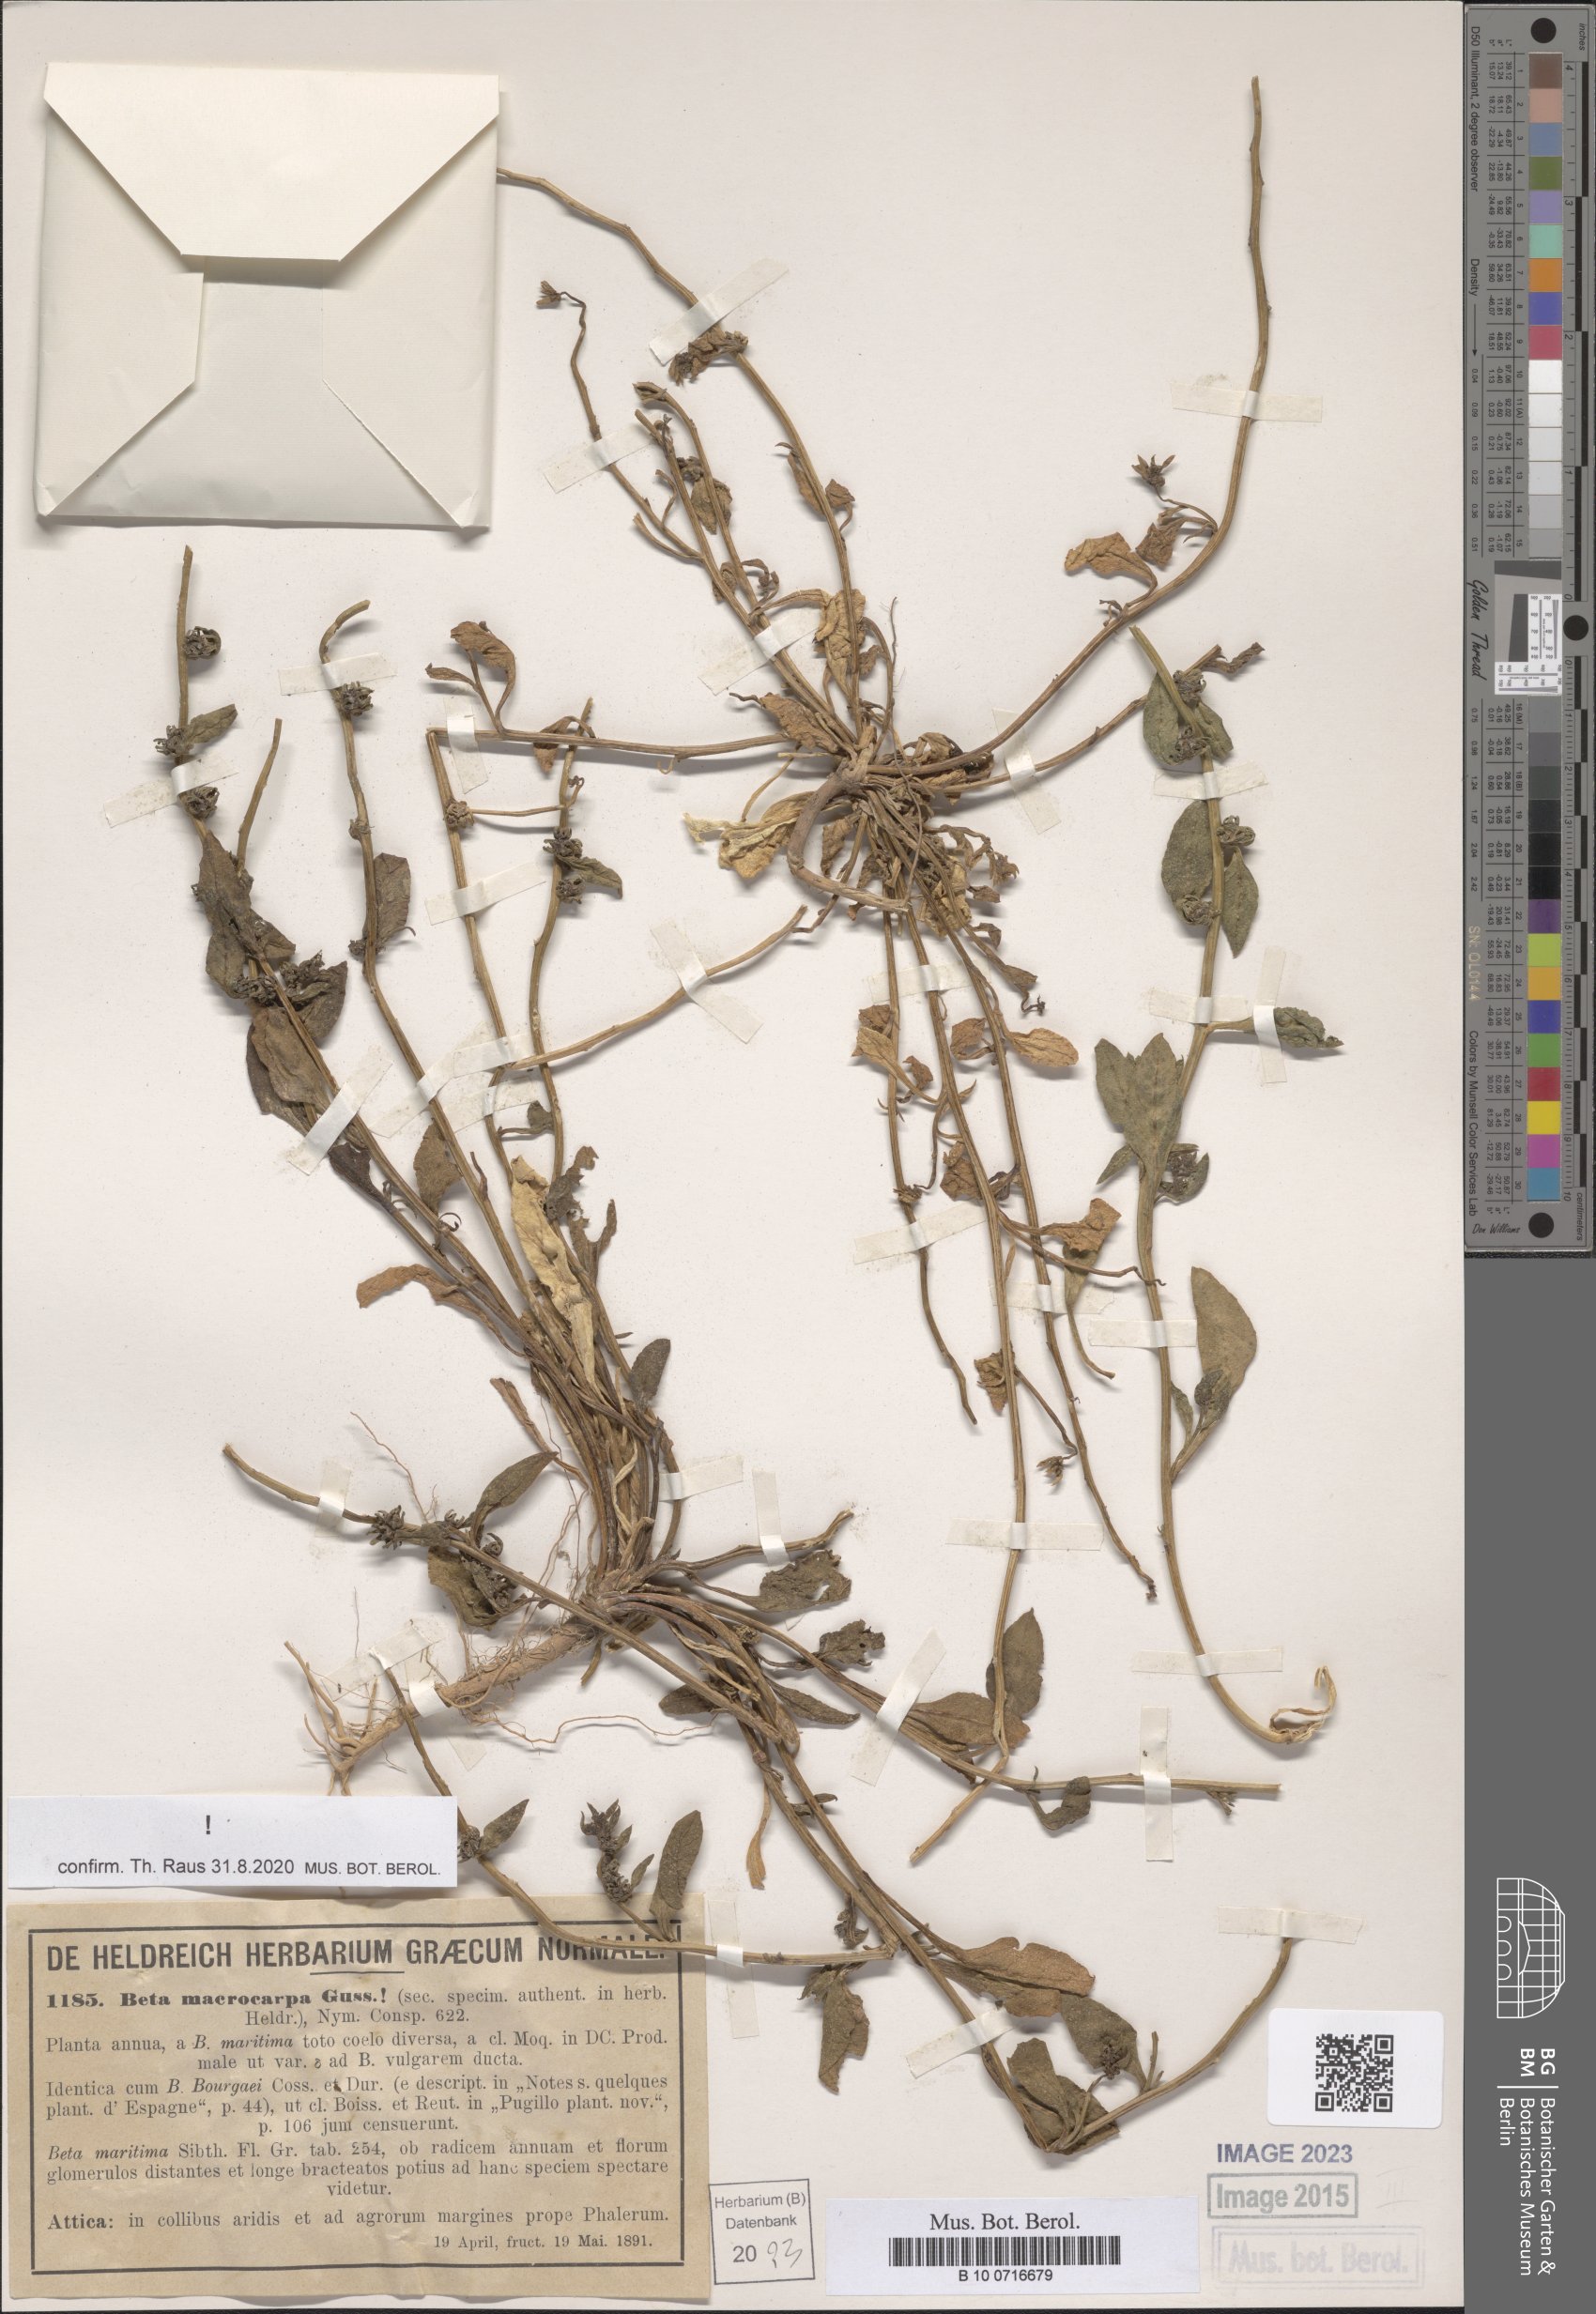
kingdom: Plantae
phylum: Tracheophyta
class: Magnoliopsida
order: Caryophyllales
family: Amaranthaceae
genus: Beta
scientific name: Beta macrocarpa
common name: Beet
